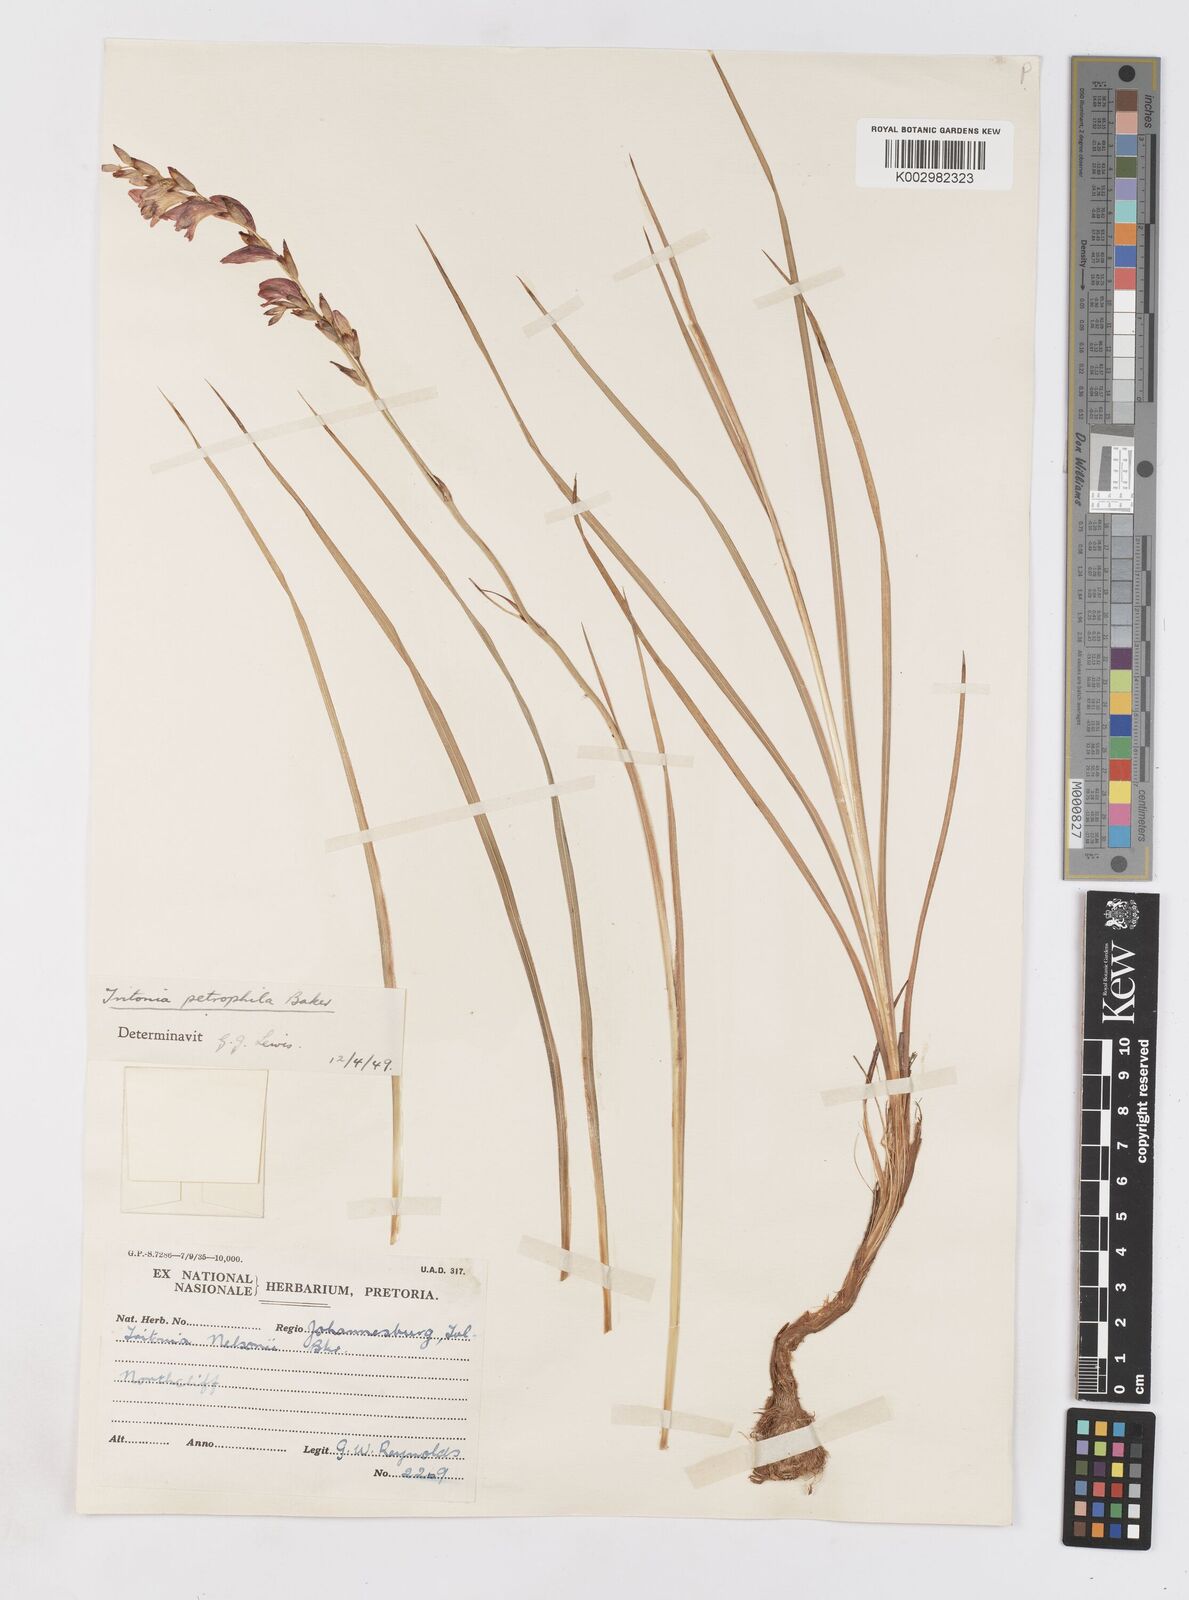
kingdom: Plantae
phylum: Tracheophyta
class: Liliopsida
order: Asparagales
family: Iridaceae
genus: Tritonia
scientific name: Tritonia nelsonii
